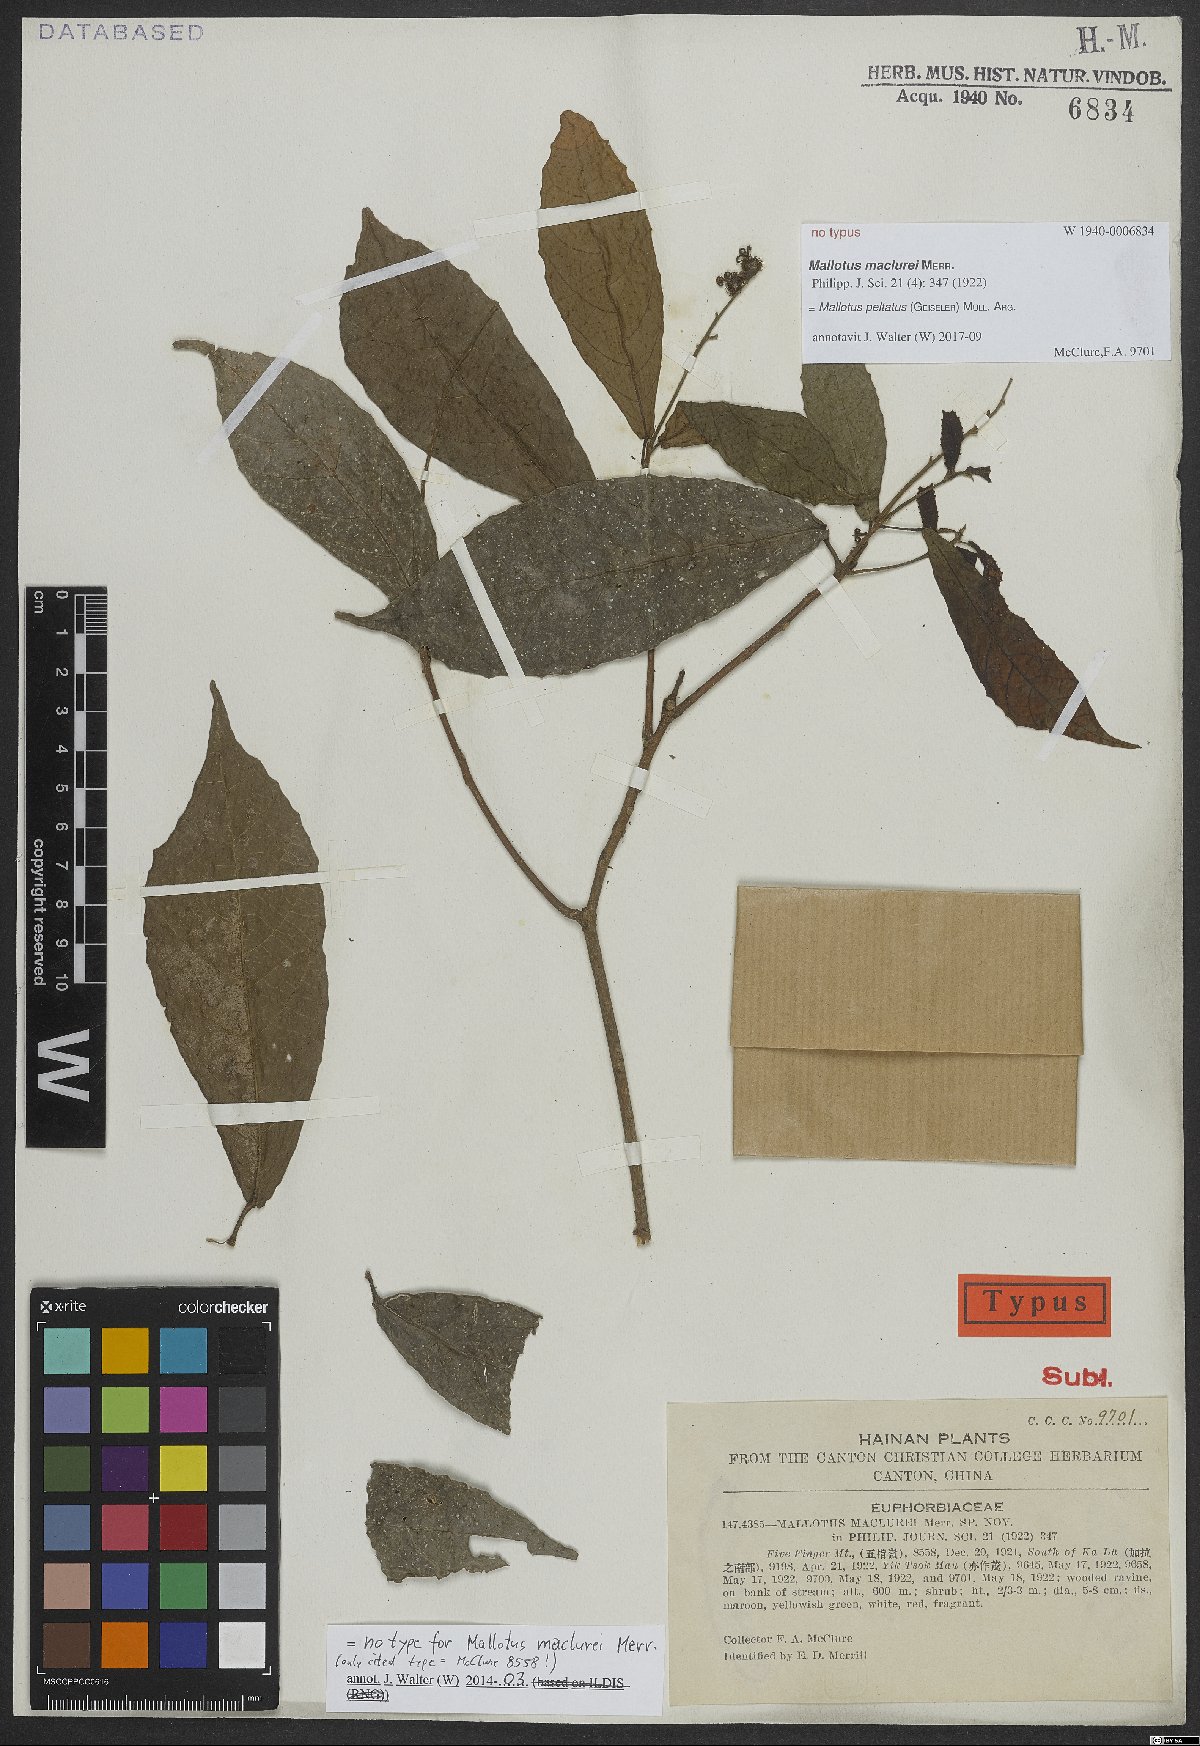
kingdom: Plantae
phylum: Tracheophyta
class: Magnoliopsida
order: Malpighiales
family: Euphorbiaceae
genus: Mallotus
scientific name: Mallotus peltatus
